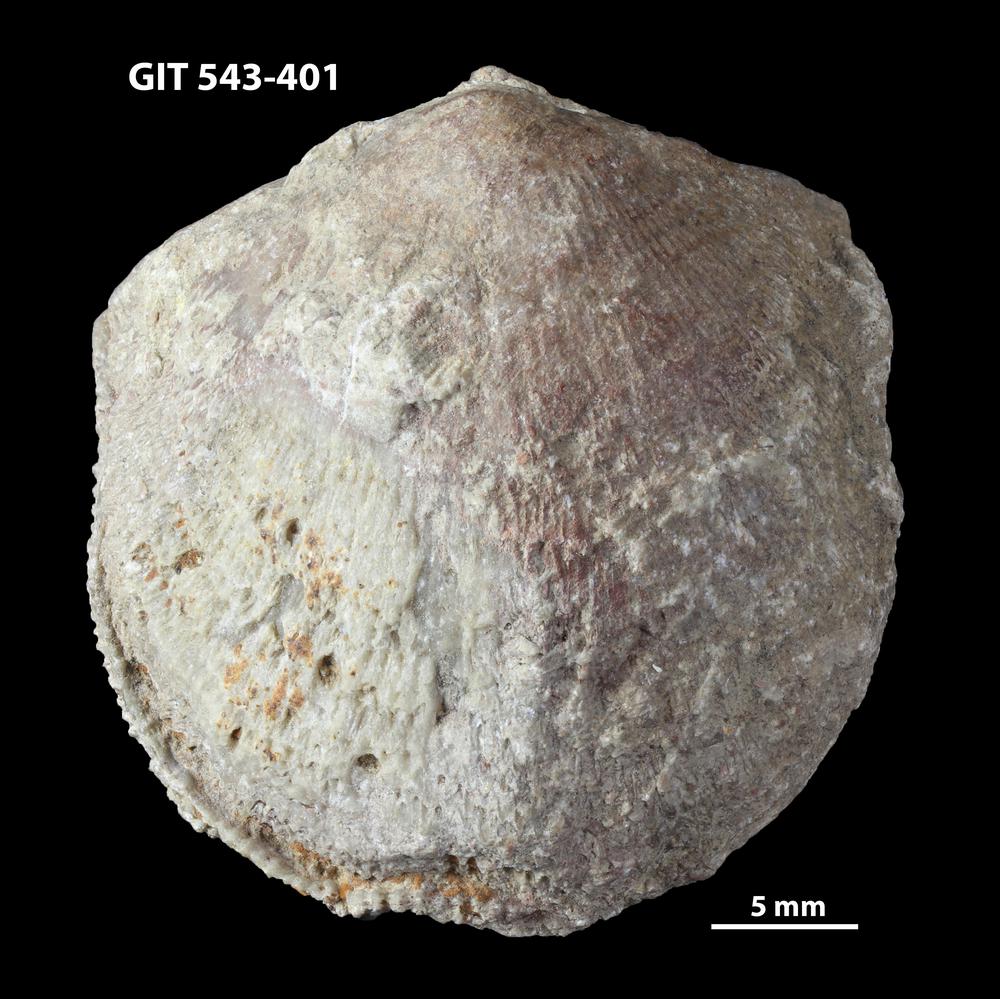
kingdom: Animalia
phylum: Brachiopoda
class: Rhynchonellata
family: Clitambonitidae
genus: Clitambonites
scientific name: Clitambonites squamatus
